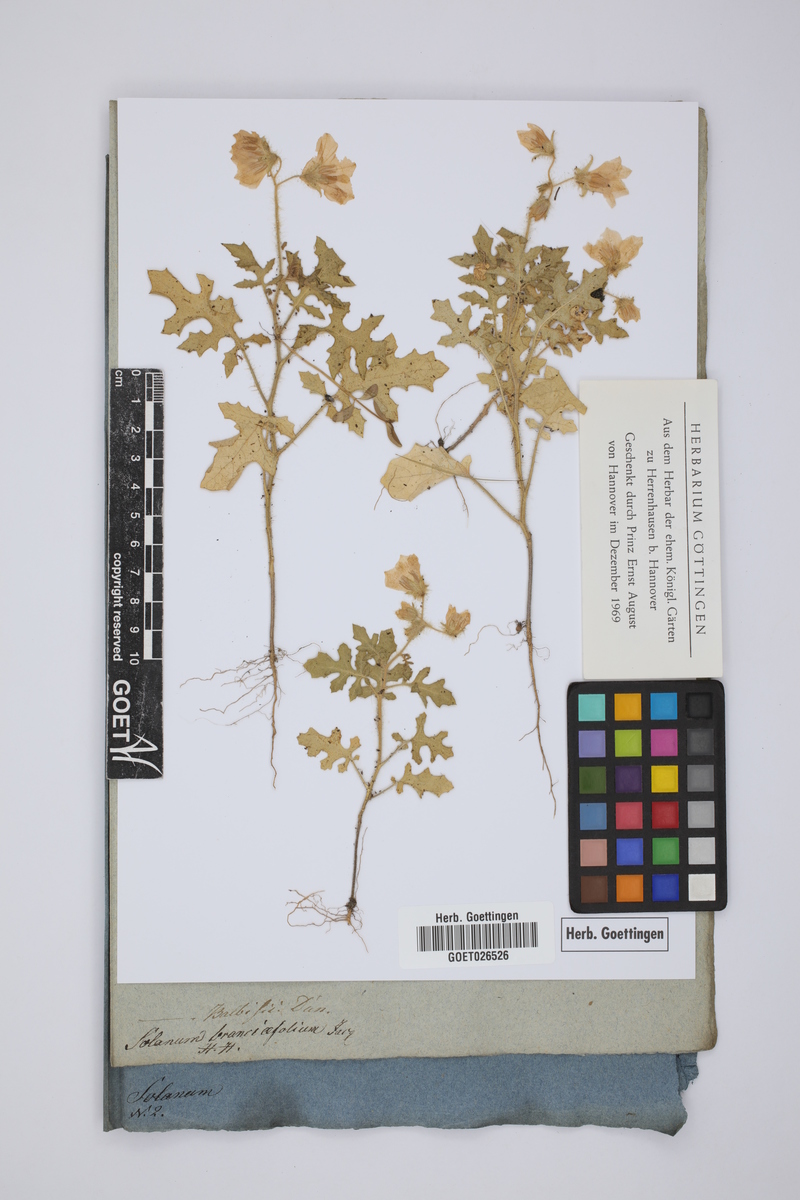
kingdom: Plantae
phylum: Tracheophyta
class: Magnoliopsida
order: Solanales
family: Solanaceae
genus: Solanum
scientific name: Solanum sisymbriifolium
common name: Red buffalo-bur
